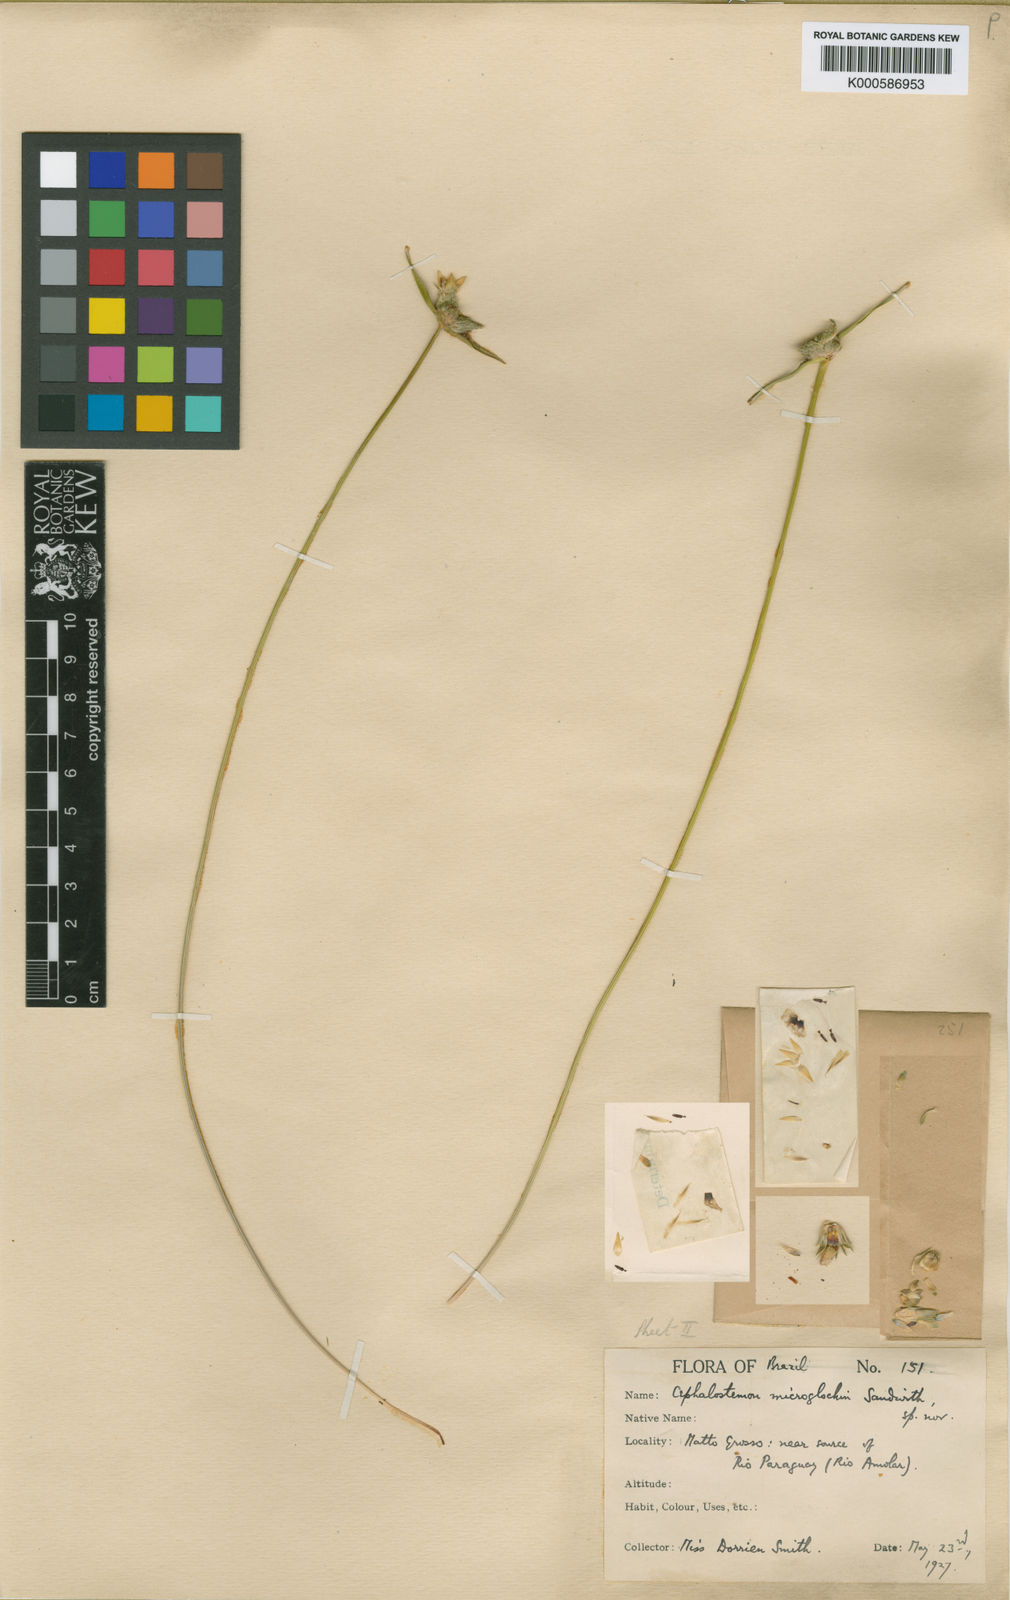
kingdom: Plantae
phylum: Tracheophyta
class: Liliopsida
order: Poales
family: Rapateaceae
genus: Cephalostemon
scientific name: Cephalostemon microglochin
